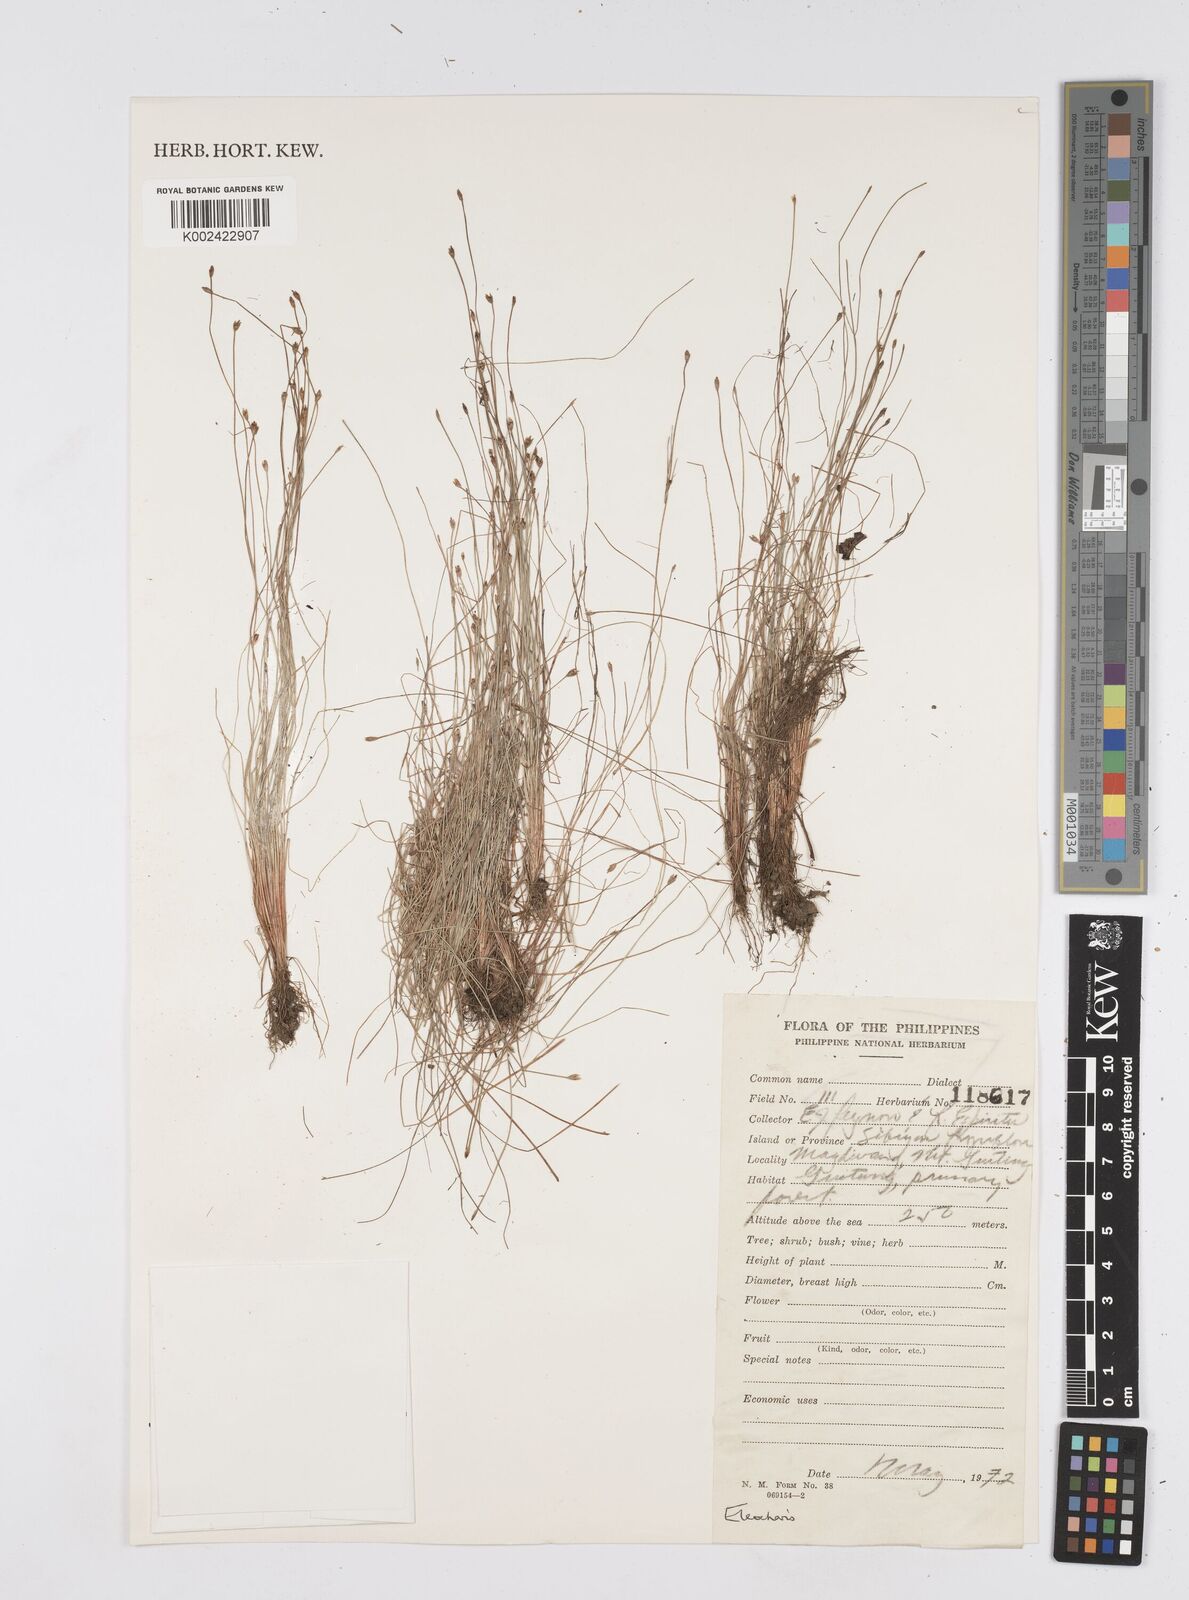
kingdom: Plantae
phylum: Tracheophyta
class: Liliopsida
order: Poales
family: Cyperaceae
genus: Eleocharis
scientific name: Eleocharis
